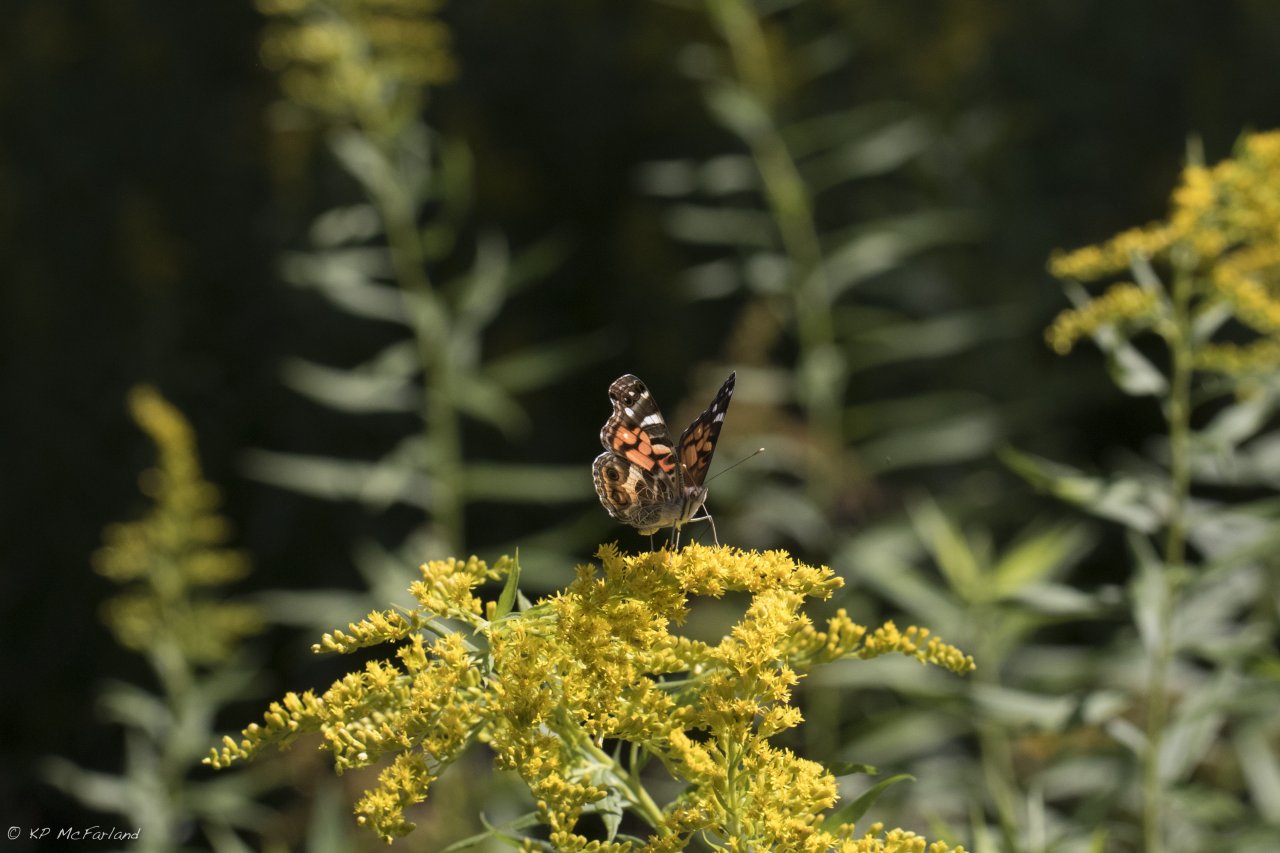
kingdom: Animalia
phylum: Arthropoda
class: Insecta
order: Lepidoptera
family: Nymphalidae
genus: Vanessa
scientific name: Vanessa virginiensis
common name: American Lady
